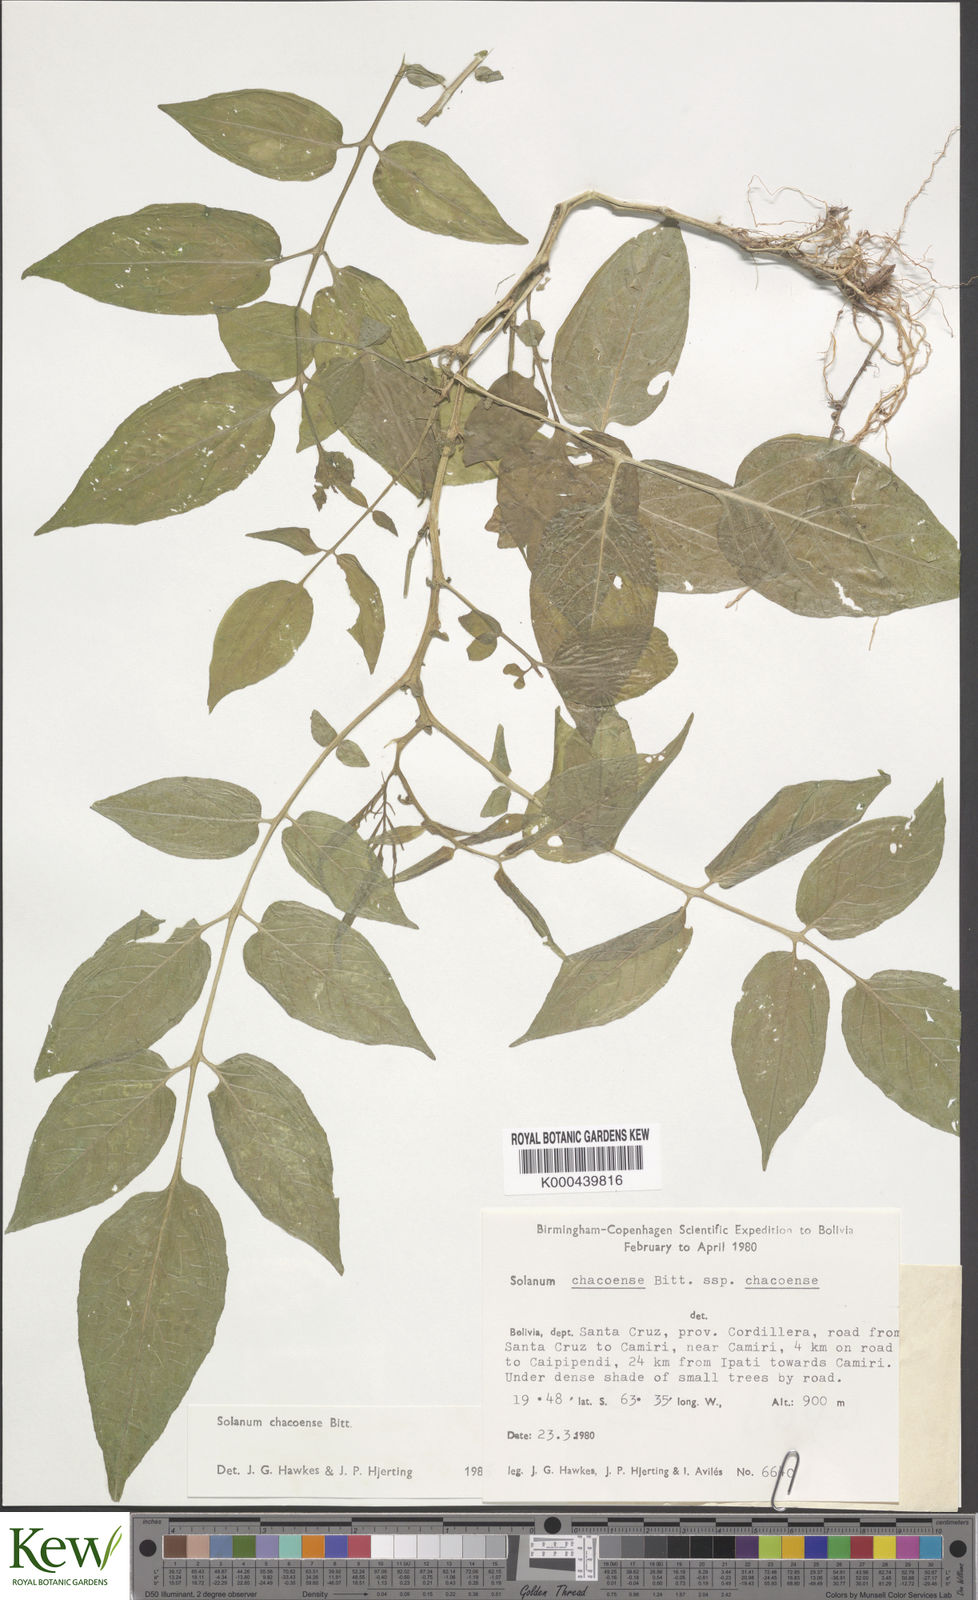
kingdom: Plantae
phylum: Tracheophyta
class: Magnoliopsida
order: Solanales
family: Solanaceae
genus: Solanum
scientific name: Solanum chacoense
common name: Chaco potato
